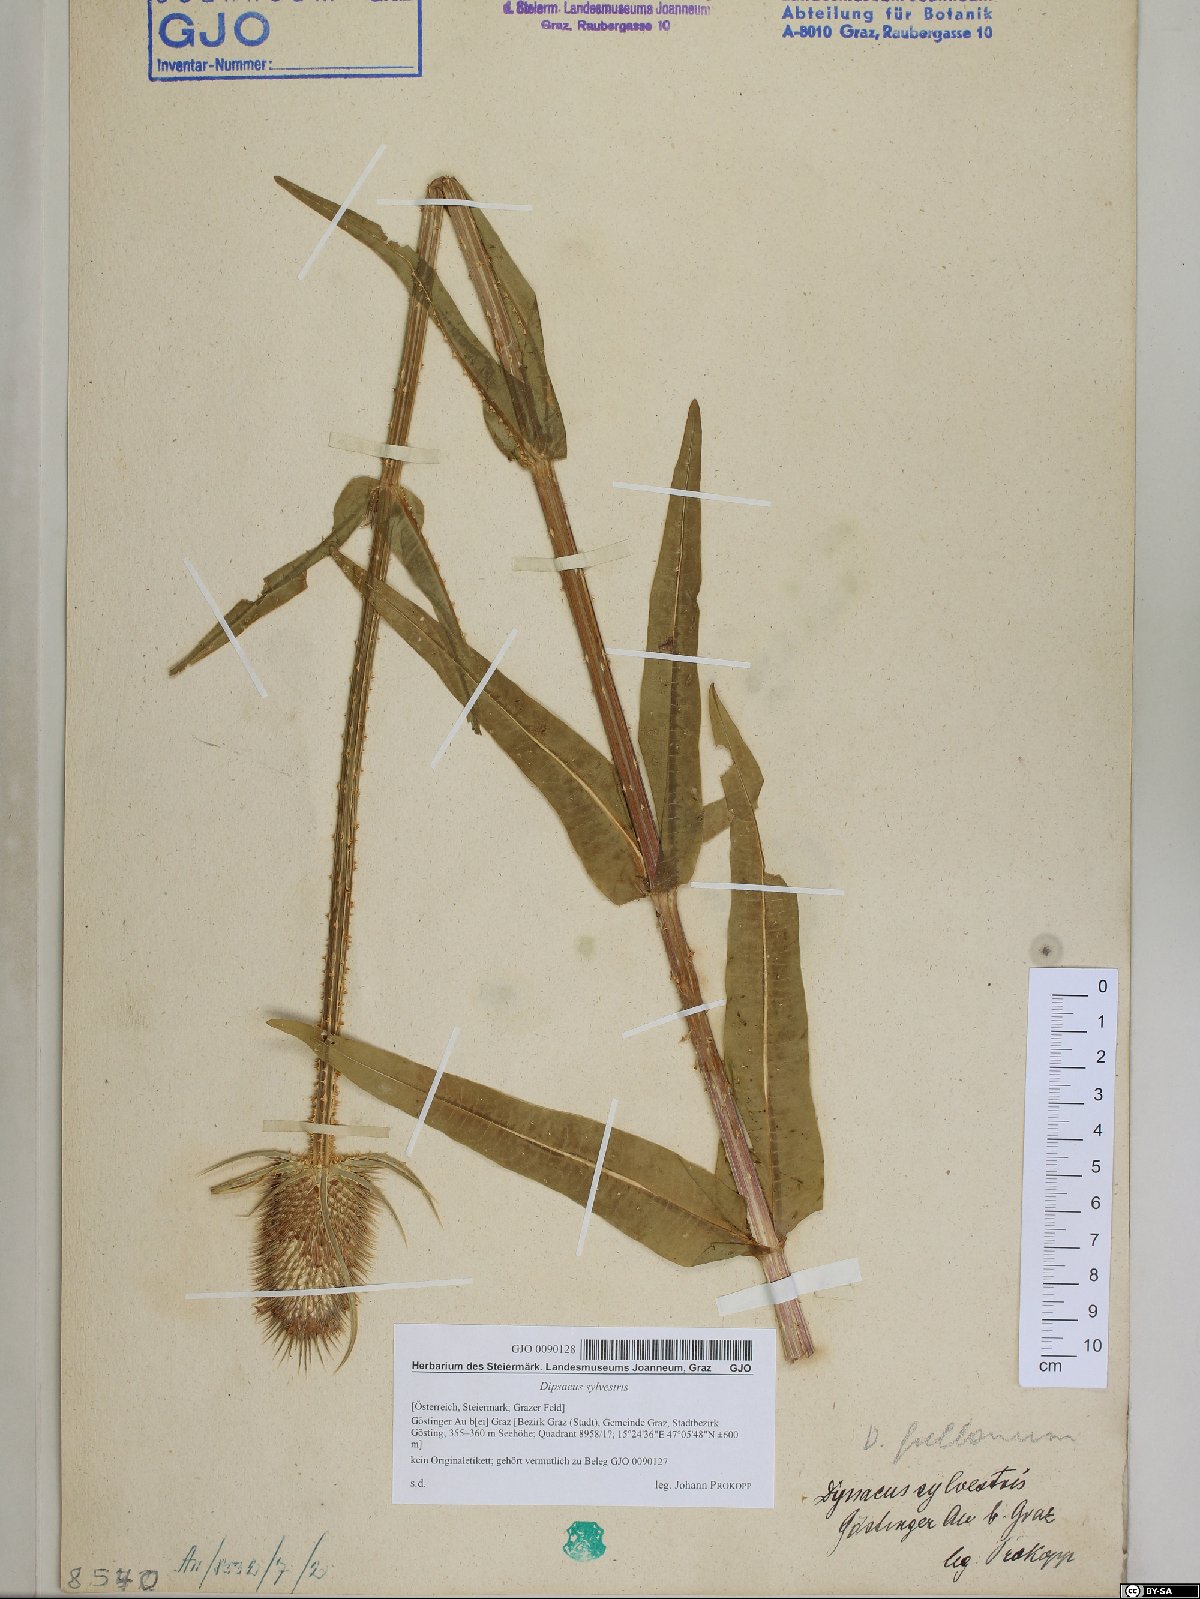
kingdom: Plantae
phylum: Tracheophyta
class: Magnoliopsida
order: Dipsacales
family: Caprifoliaceae
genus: Dipsacus
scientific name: Dipsacus fullonum
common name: Teasel
